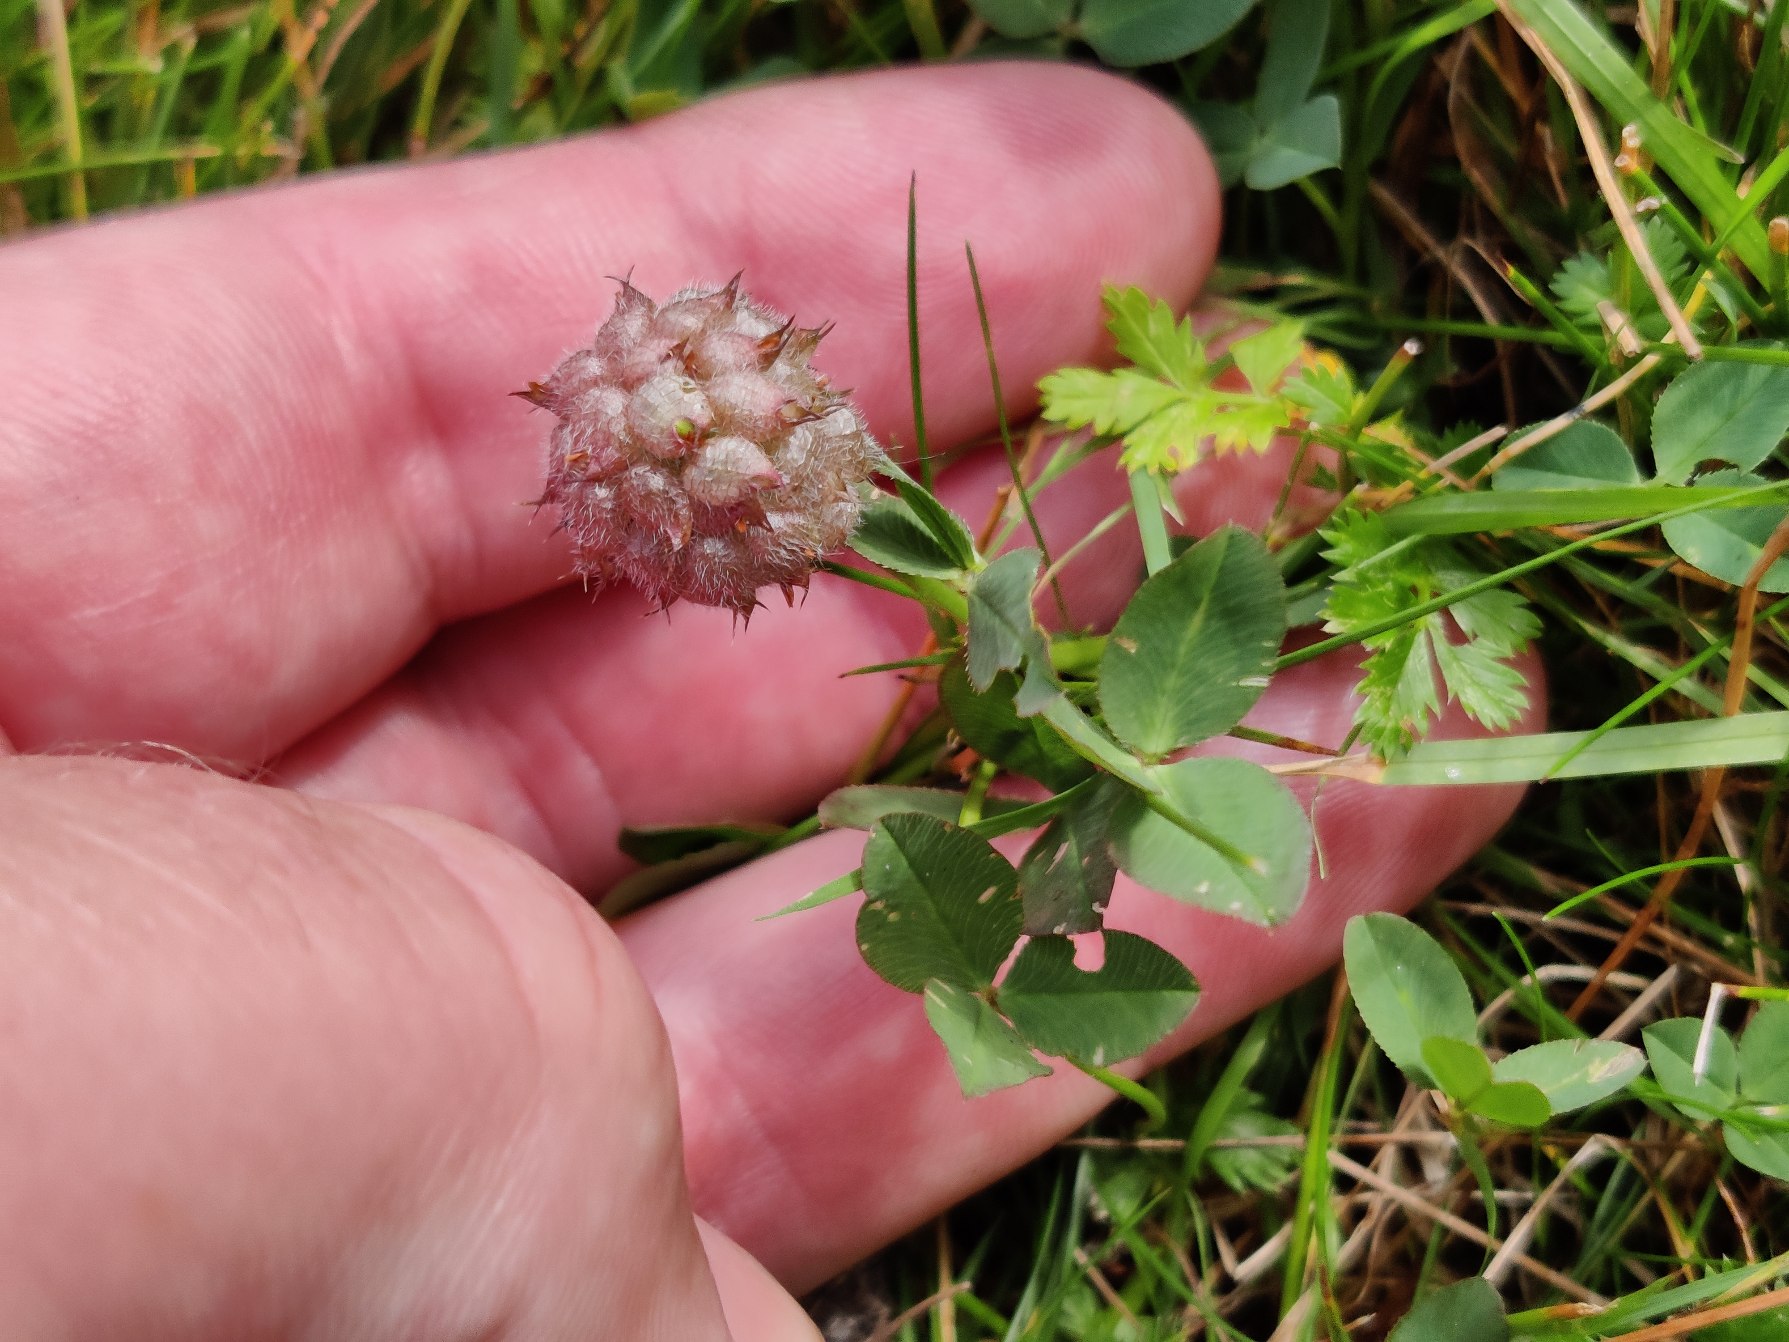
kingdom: Plantae
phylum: Tracheophyta
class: Magnoliopsida
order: Fabales
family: Fabaceae
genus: Trifolium
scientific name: Trifolium fragiferum
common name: Jordbær-kløver
